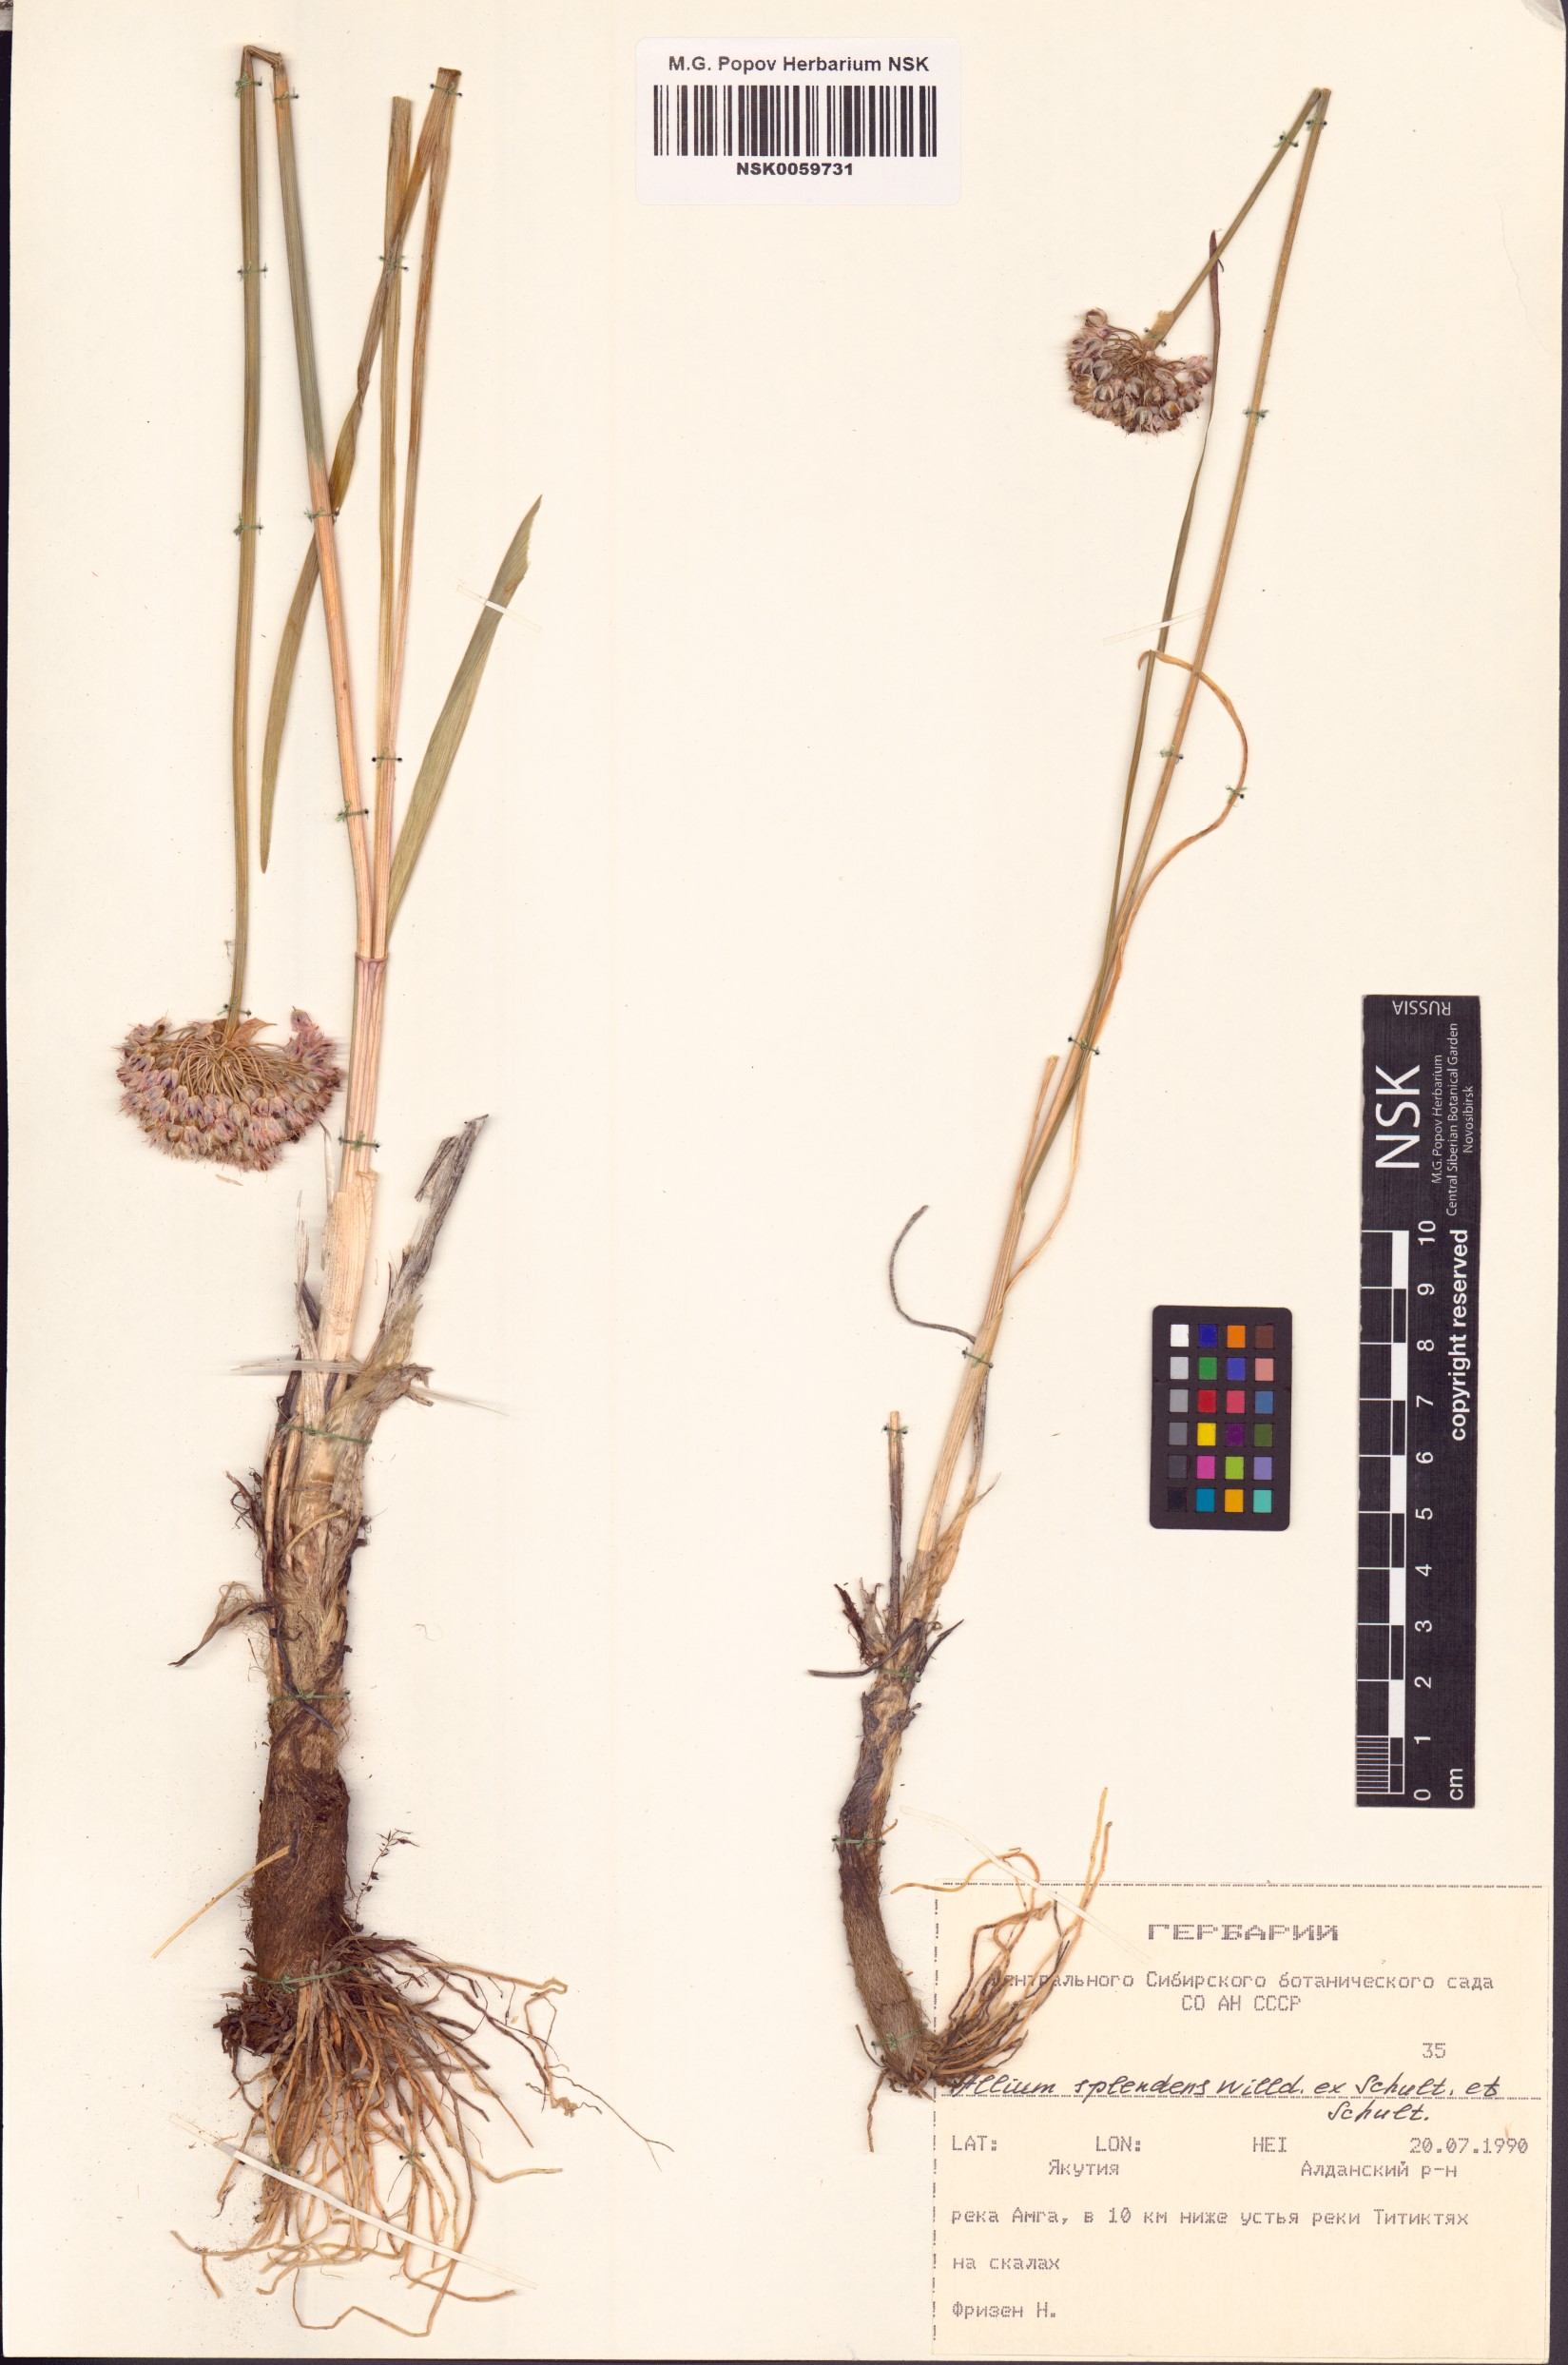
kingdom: Plantae
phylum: Tracheophyta
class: Liliopsida
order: Asparagales
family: Amaryllidaceae
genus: Allium
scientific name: Allium splendens
